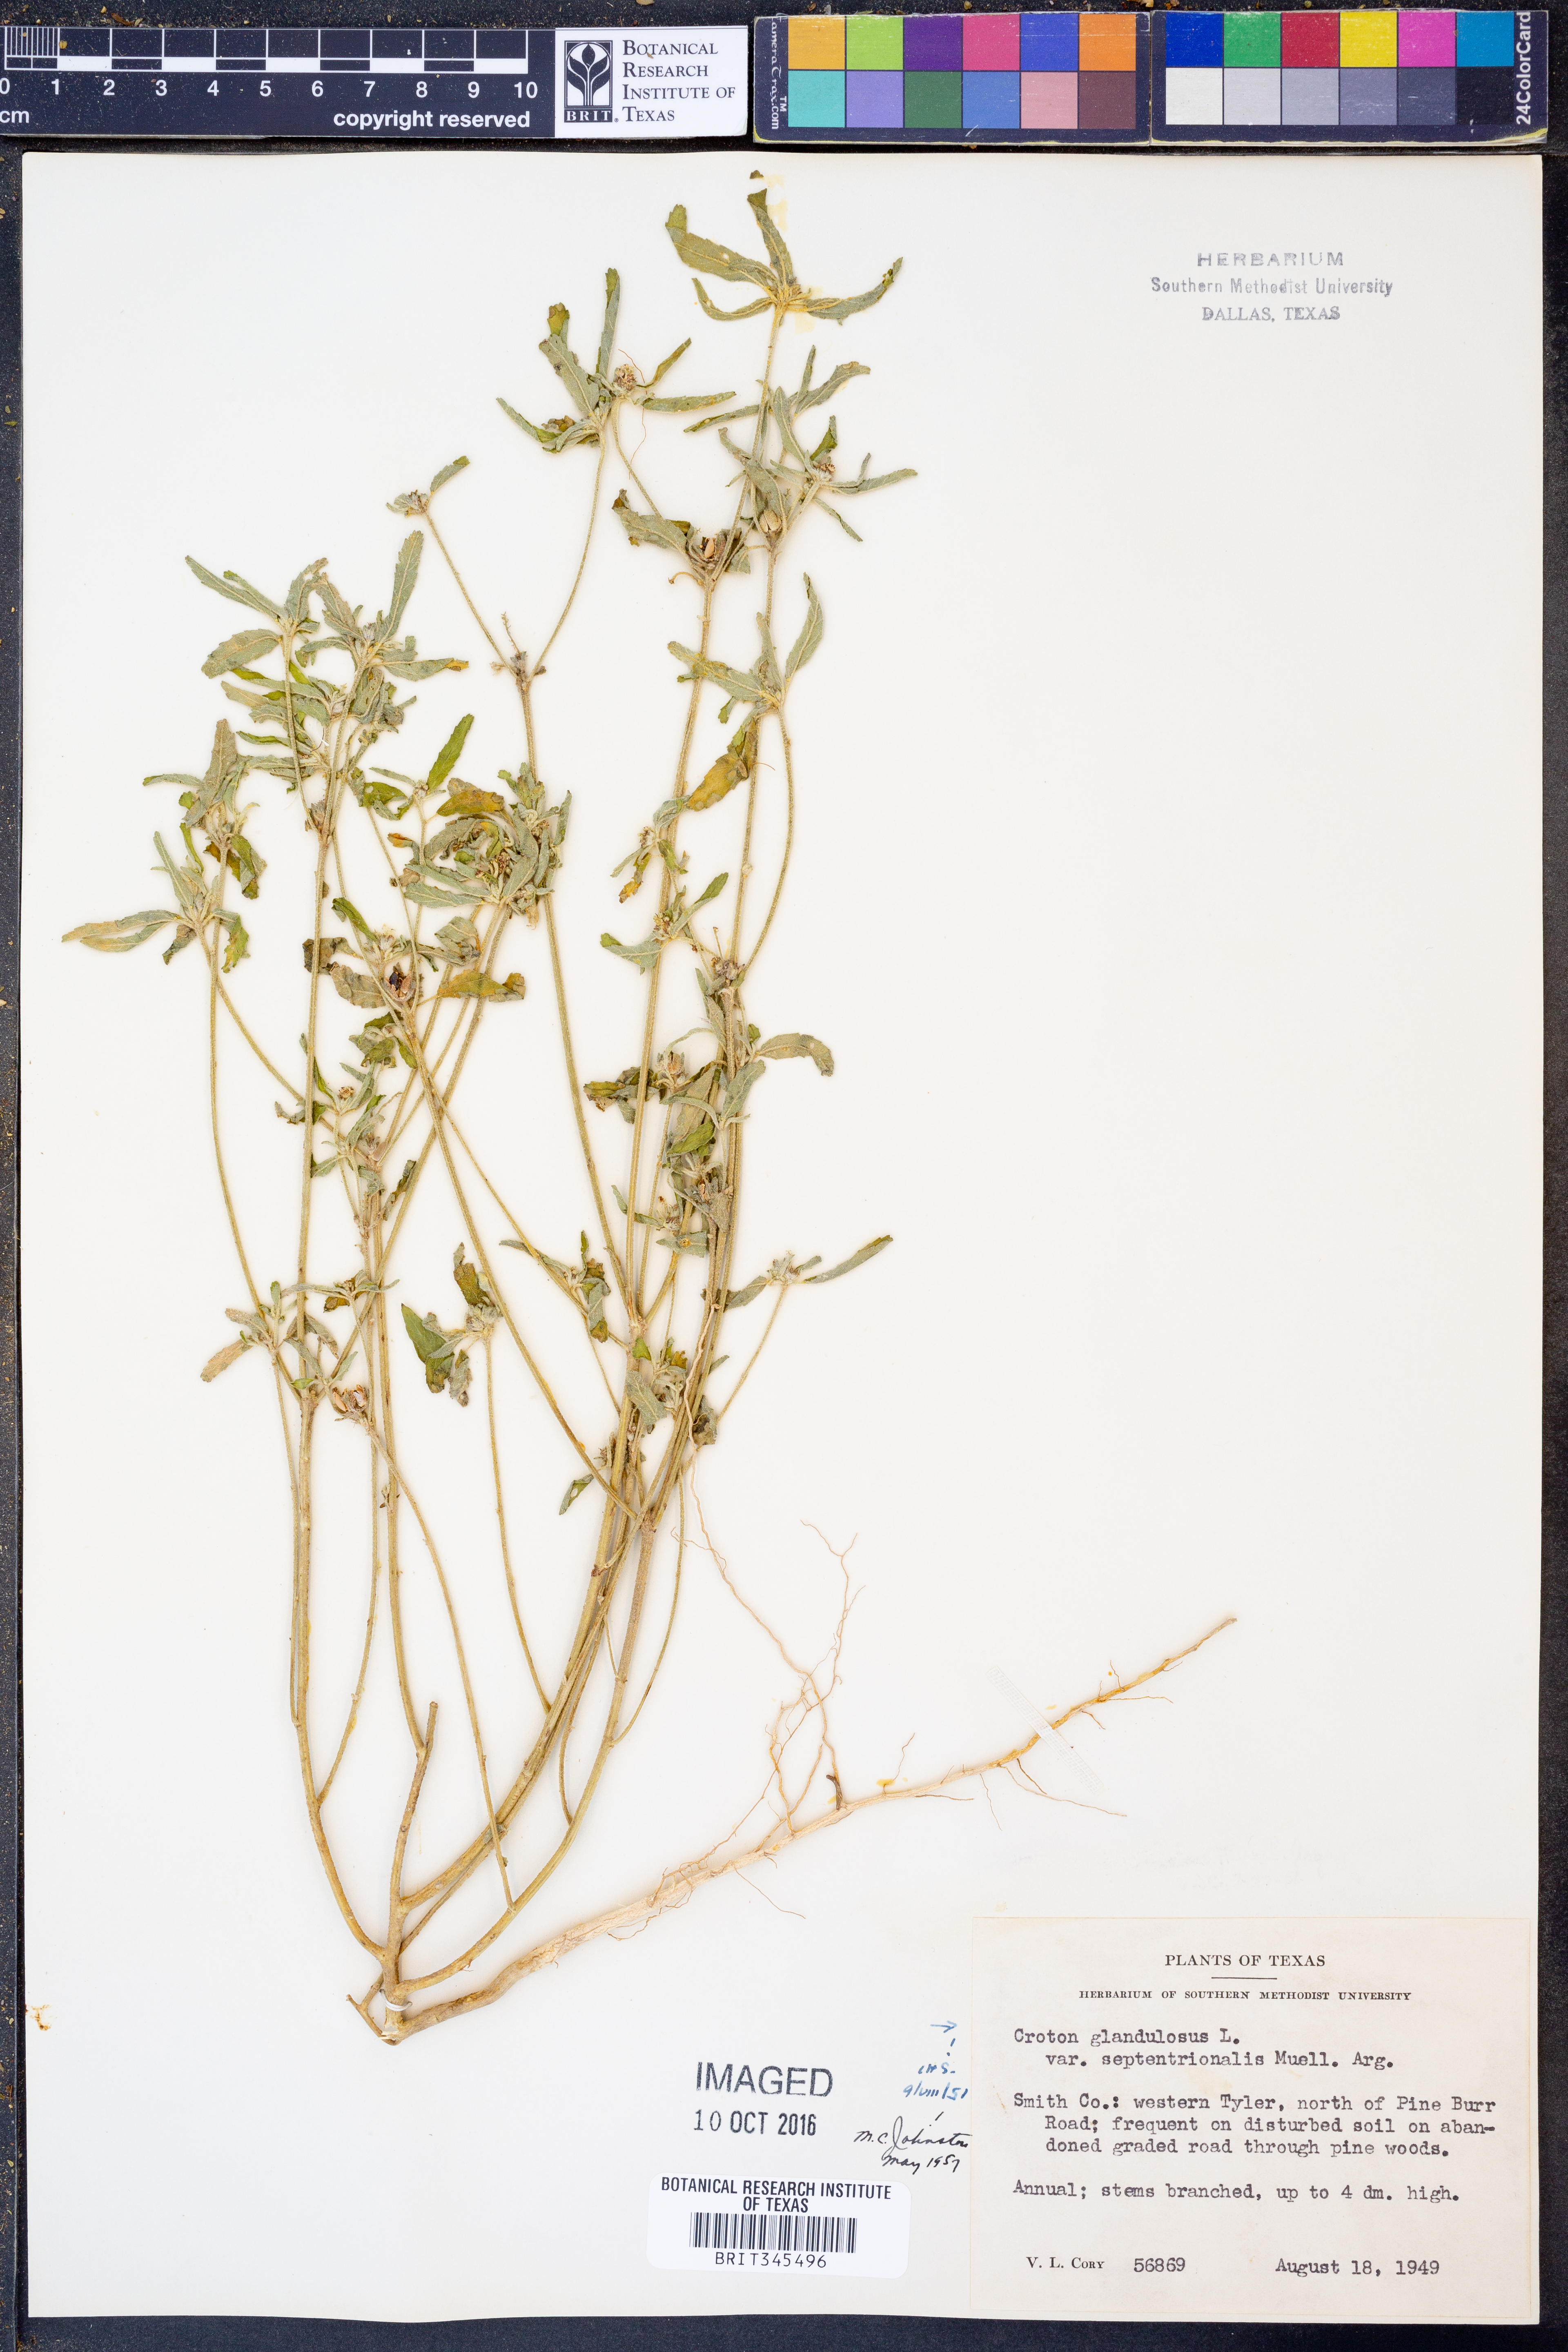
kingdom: Plantae
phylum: Tracheophyta
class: Magnoliopsida
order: Malpighiales
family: Euphorbiaceae
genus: Croton
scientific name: Croton glandulosus
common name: Tropic croton
